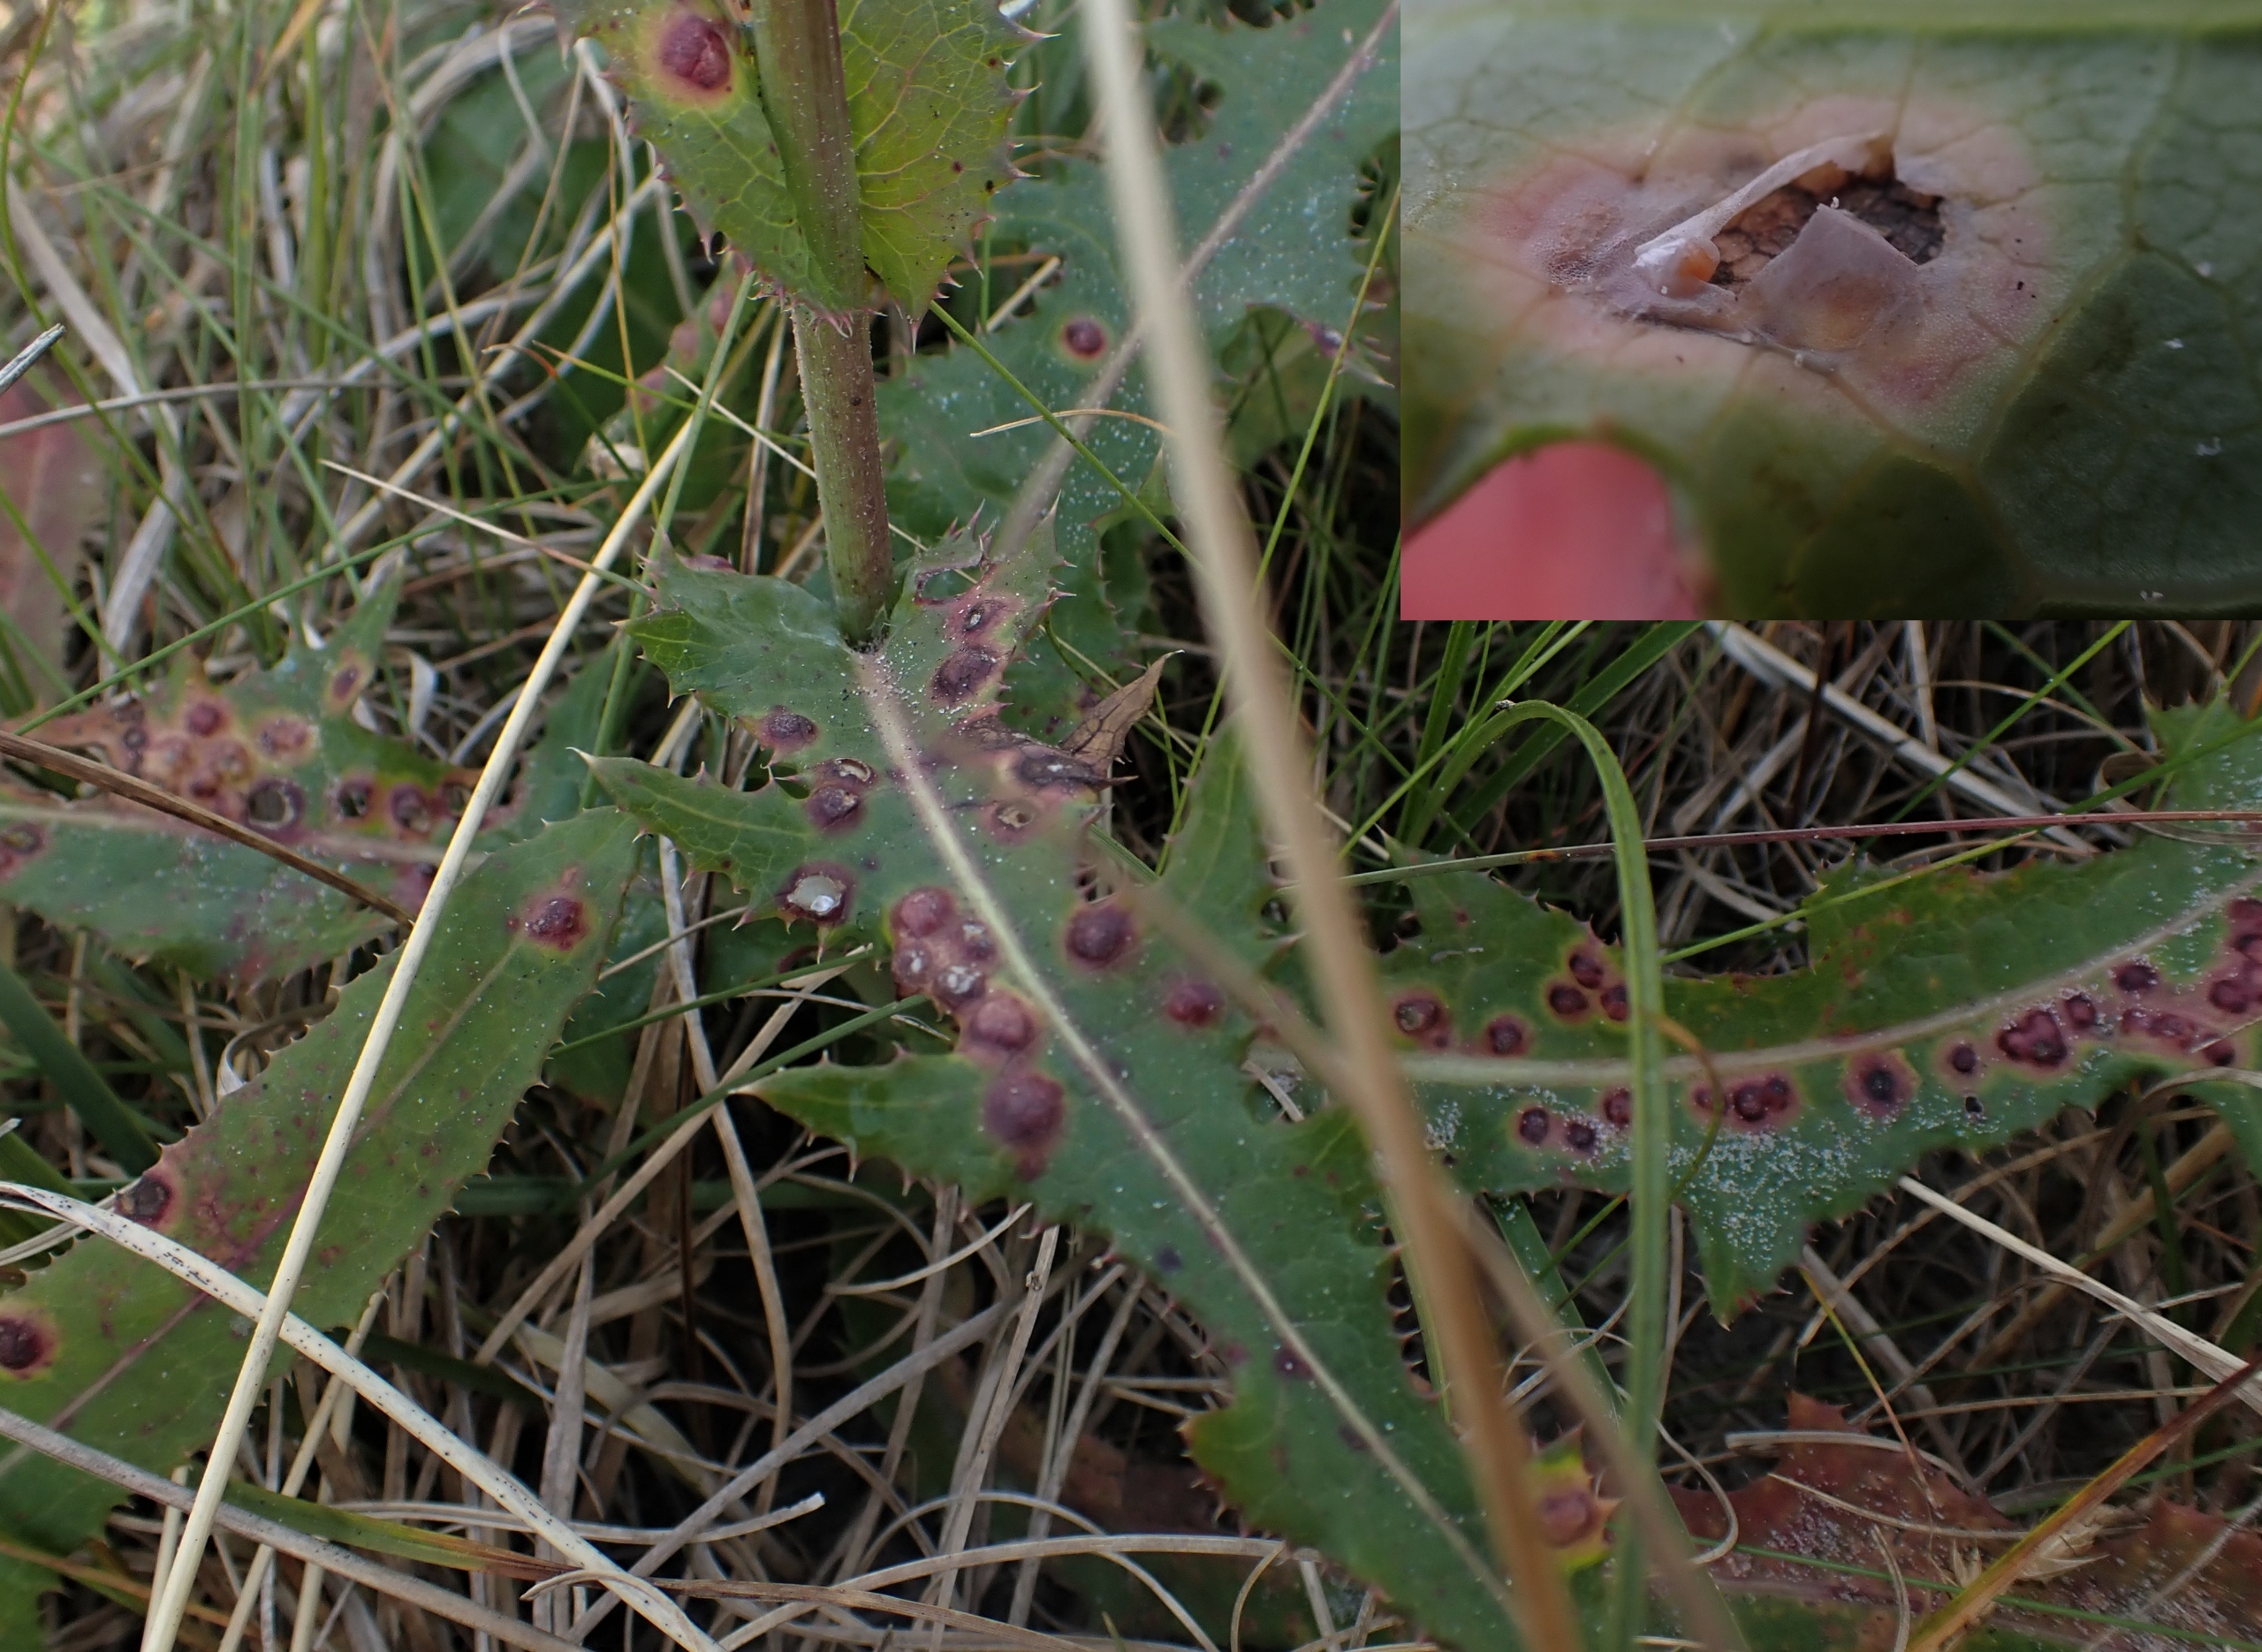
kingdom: Animalia
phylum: Arthropoda
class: Insecta
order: Diptera
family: Cecidomyiidae
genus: Cystiphora
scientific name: Cystiphora sonchi
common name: Svineblæregalmyg
